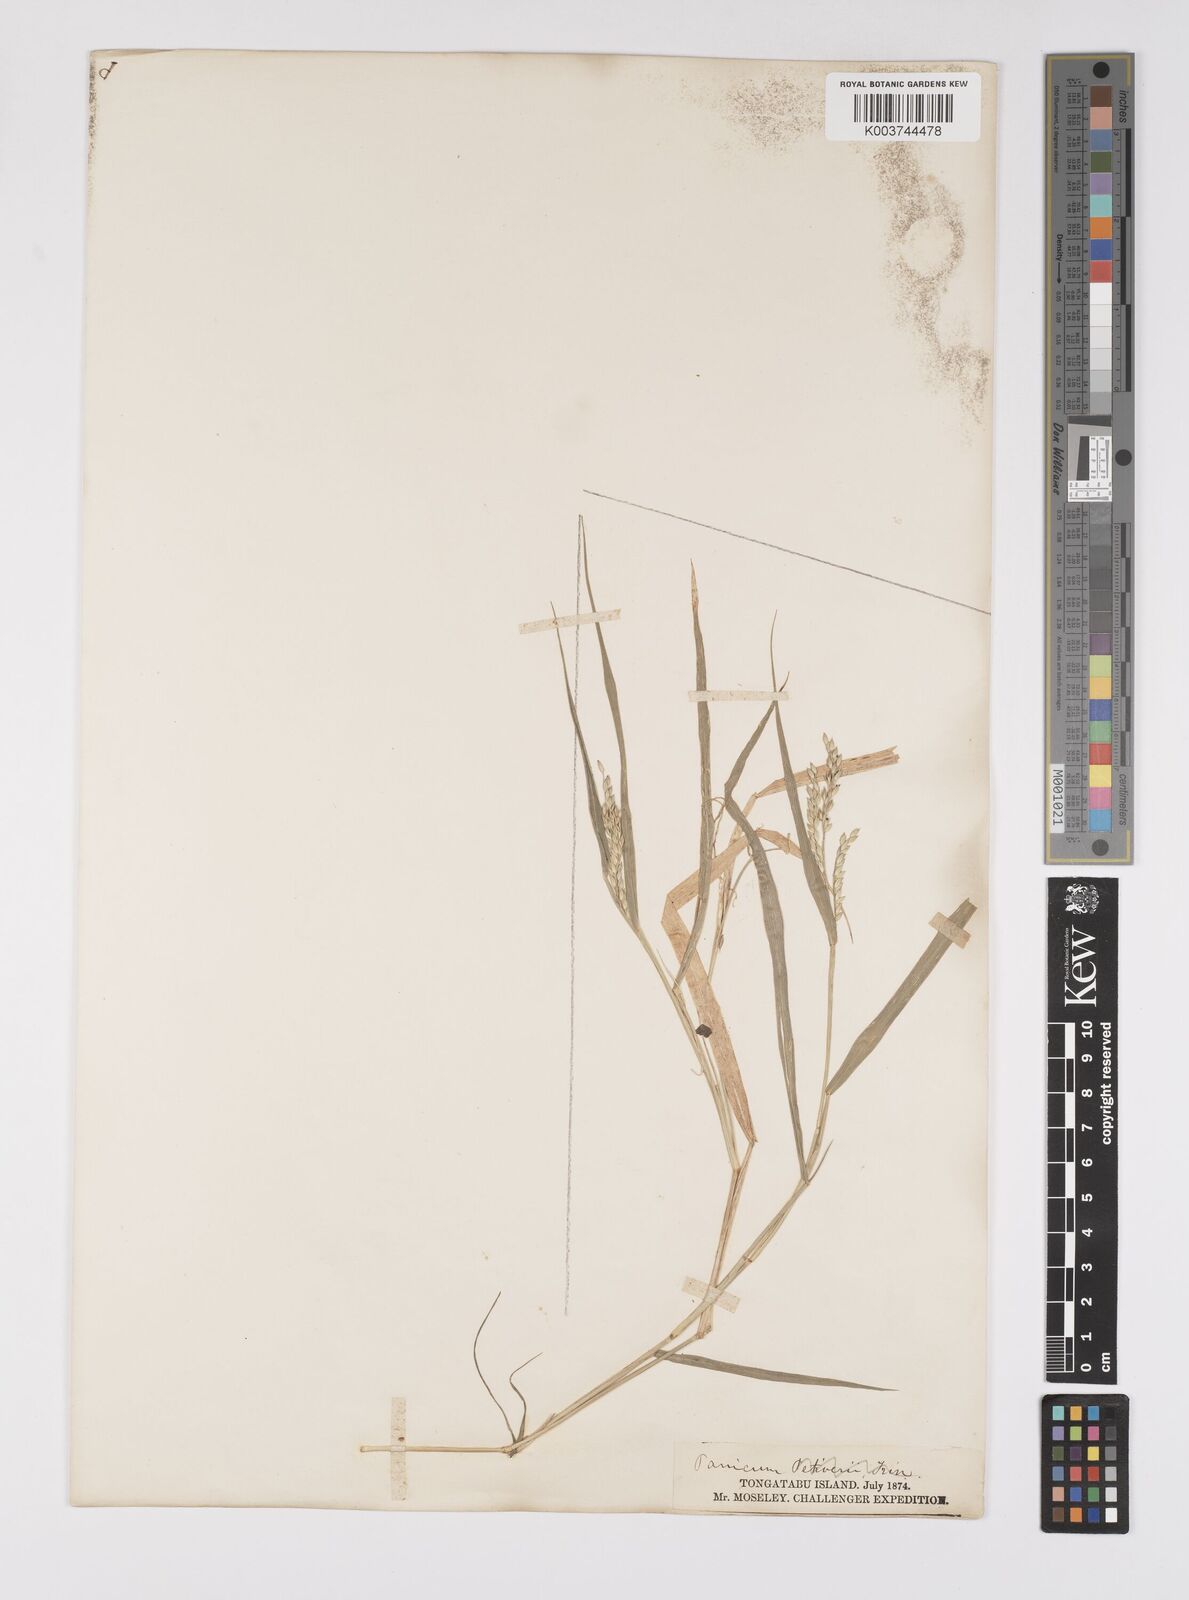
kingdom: Plantae
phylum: Tracheophyta
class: Liliopsida
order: Poales
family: Poaceae
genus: Urochloa
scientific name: Urochloa glumaris
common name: Thurston grass
